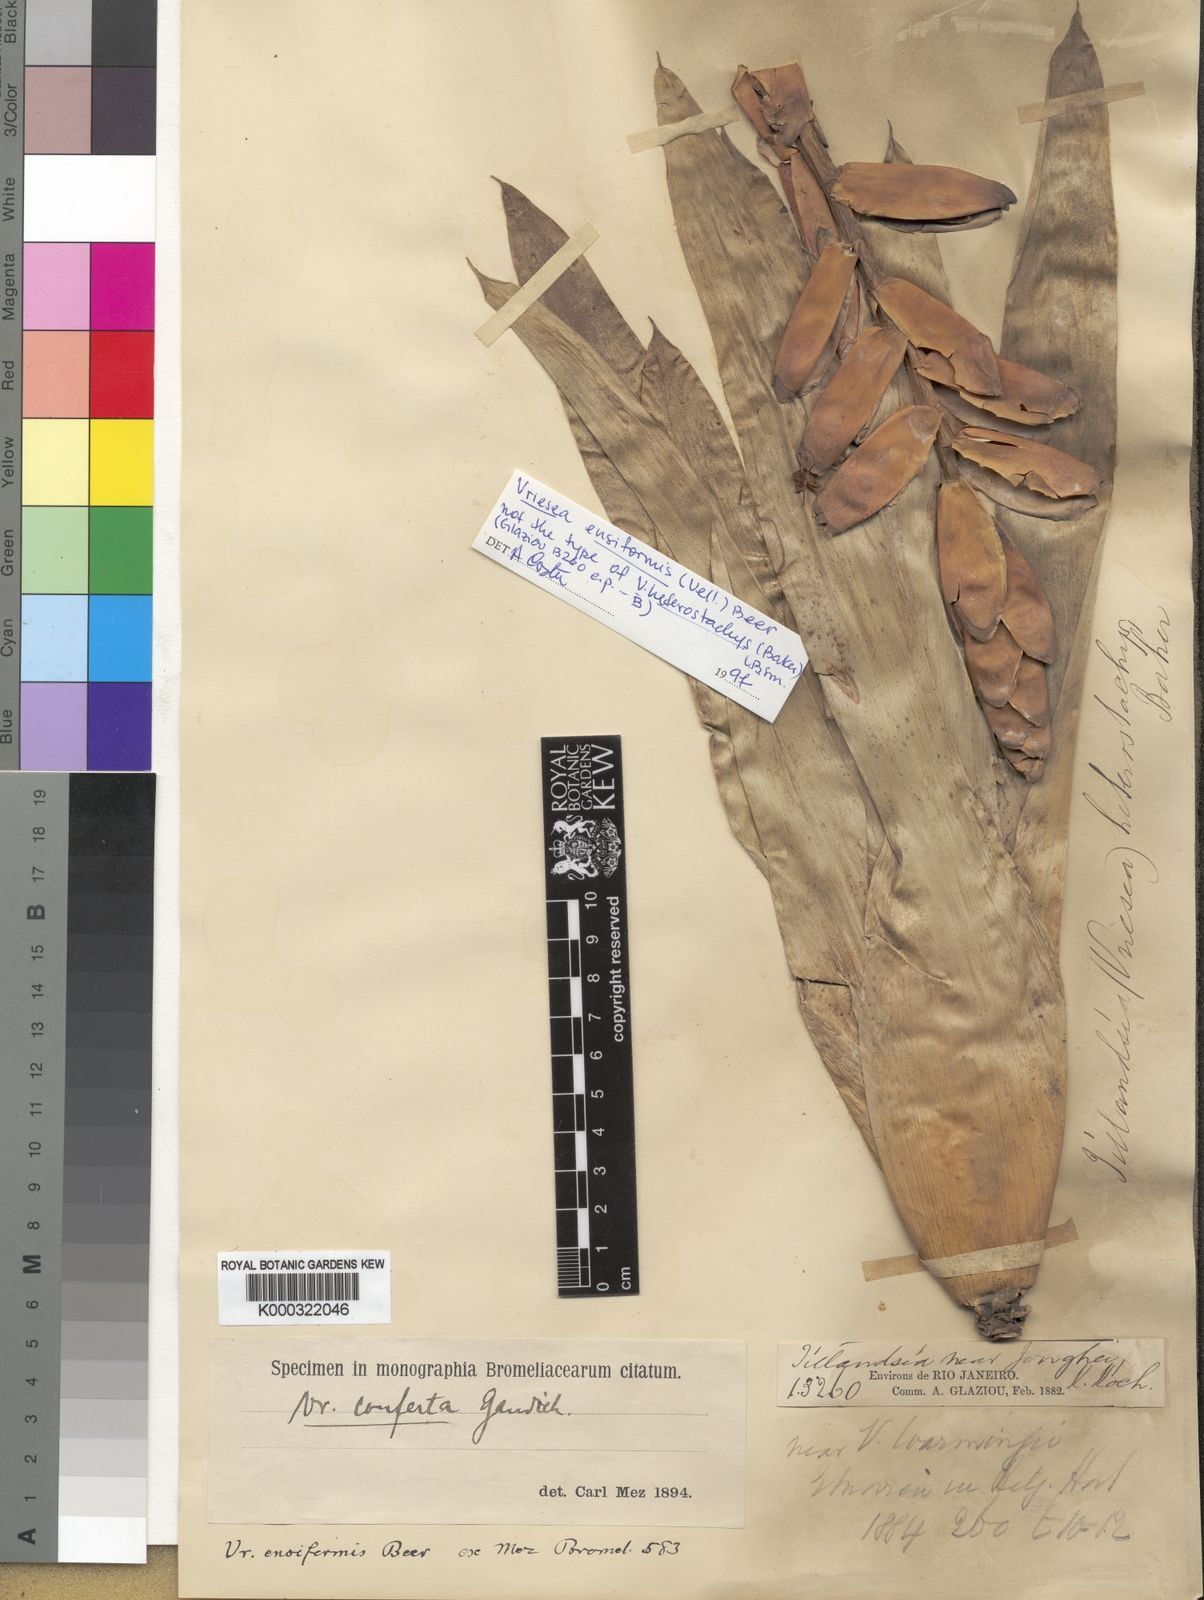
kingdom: Plantae
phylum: Tracheophyta
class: Liliopsida
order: Poales
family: Bromeliaceae
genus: Vriesea
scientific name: Vriesea ensiformis
